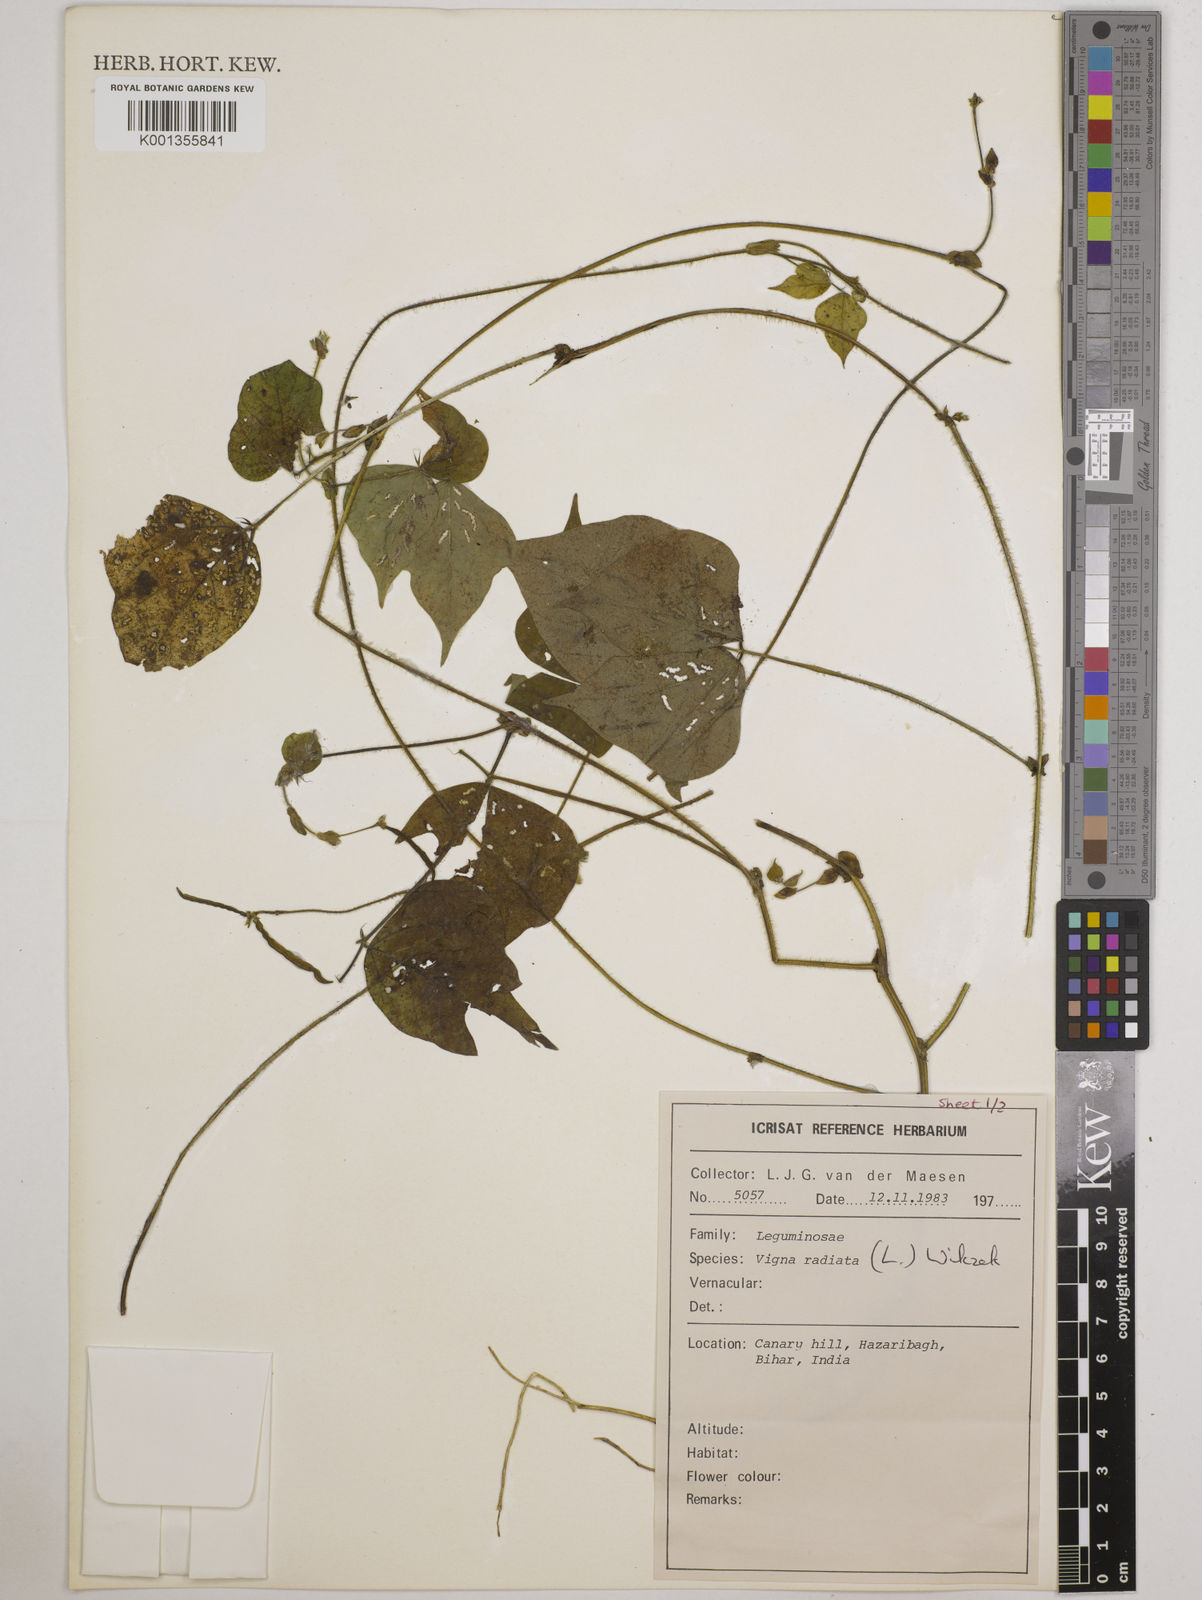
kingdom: Plantae
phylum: Tracheophyta
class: Magnoliopsida
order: Fabales
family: Fabaceae
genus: Vigna
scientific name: Vigna radiata
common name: Mung-bean
